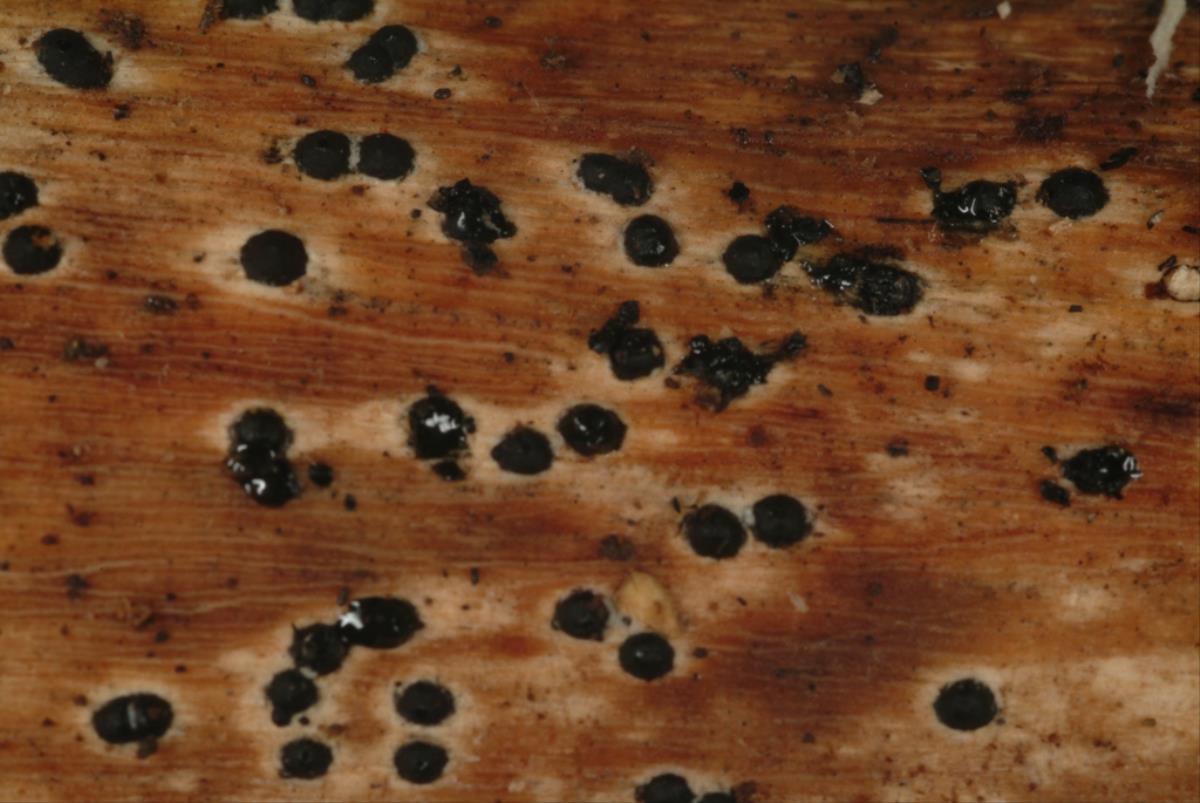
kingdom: Fungi
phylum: Ascomycota
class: Sordariomycetes
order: Xylariales
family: Xylariaceae
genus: Rosellinia
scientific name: Rosellinia
